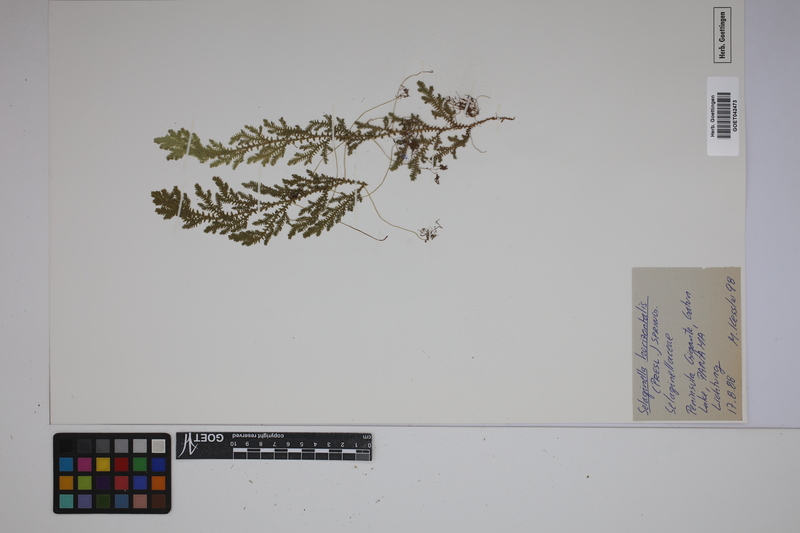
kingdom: Plantae
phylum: Tracheophyta
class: Lycopodiopsida
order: Selaginellales
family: Selaginellaceae
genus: Selaginella
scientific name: Selaginella horizontalis
